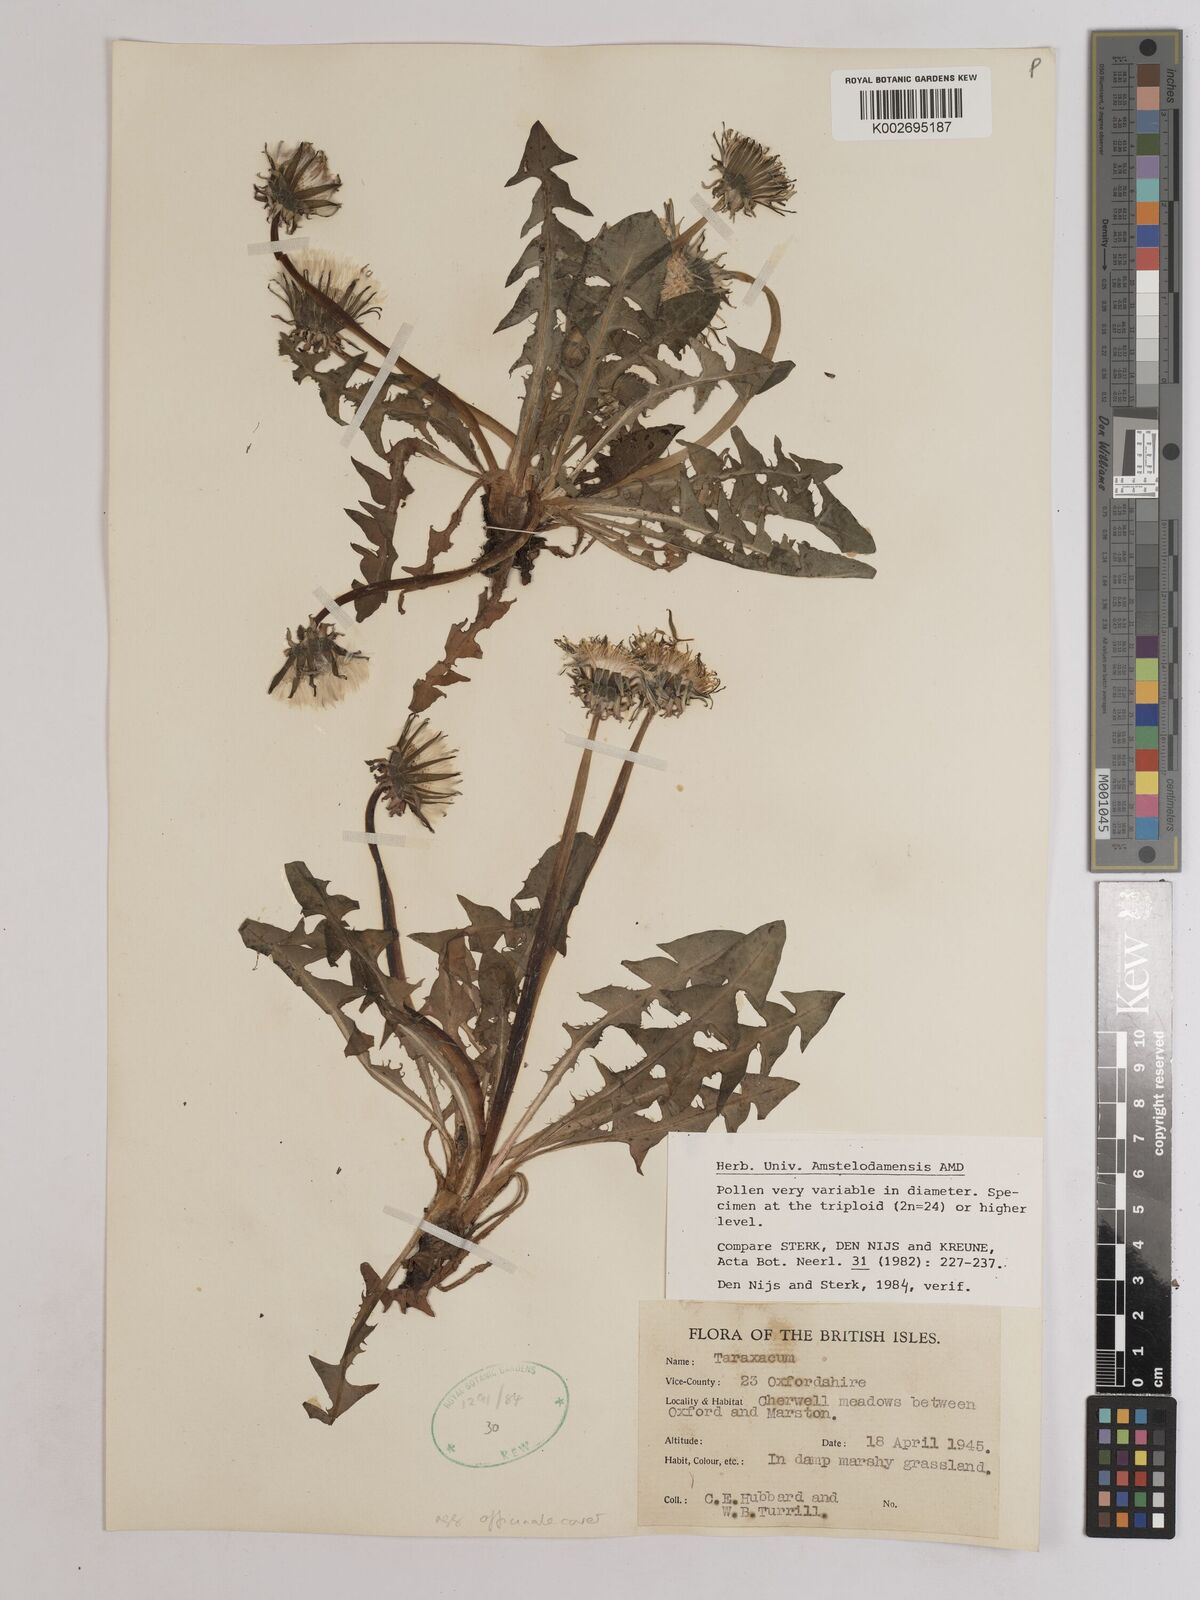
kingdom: Plantae
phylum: Tracheophyta
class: Magnoliopsida
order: Asterales
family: Asteraceae
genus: Taraxacum
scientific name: Taraxacum officinale
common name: Common dandelion
